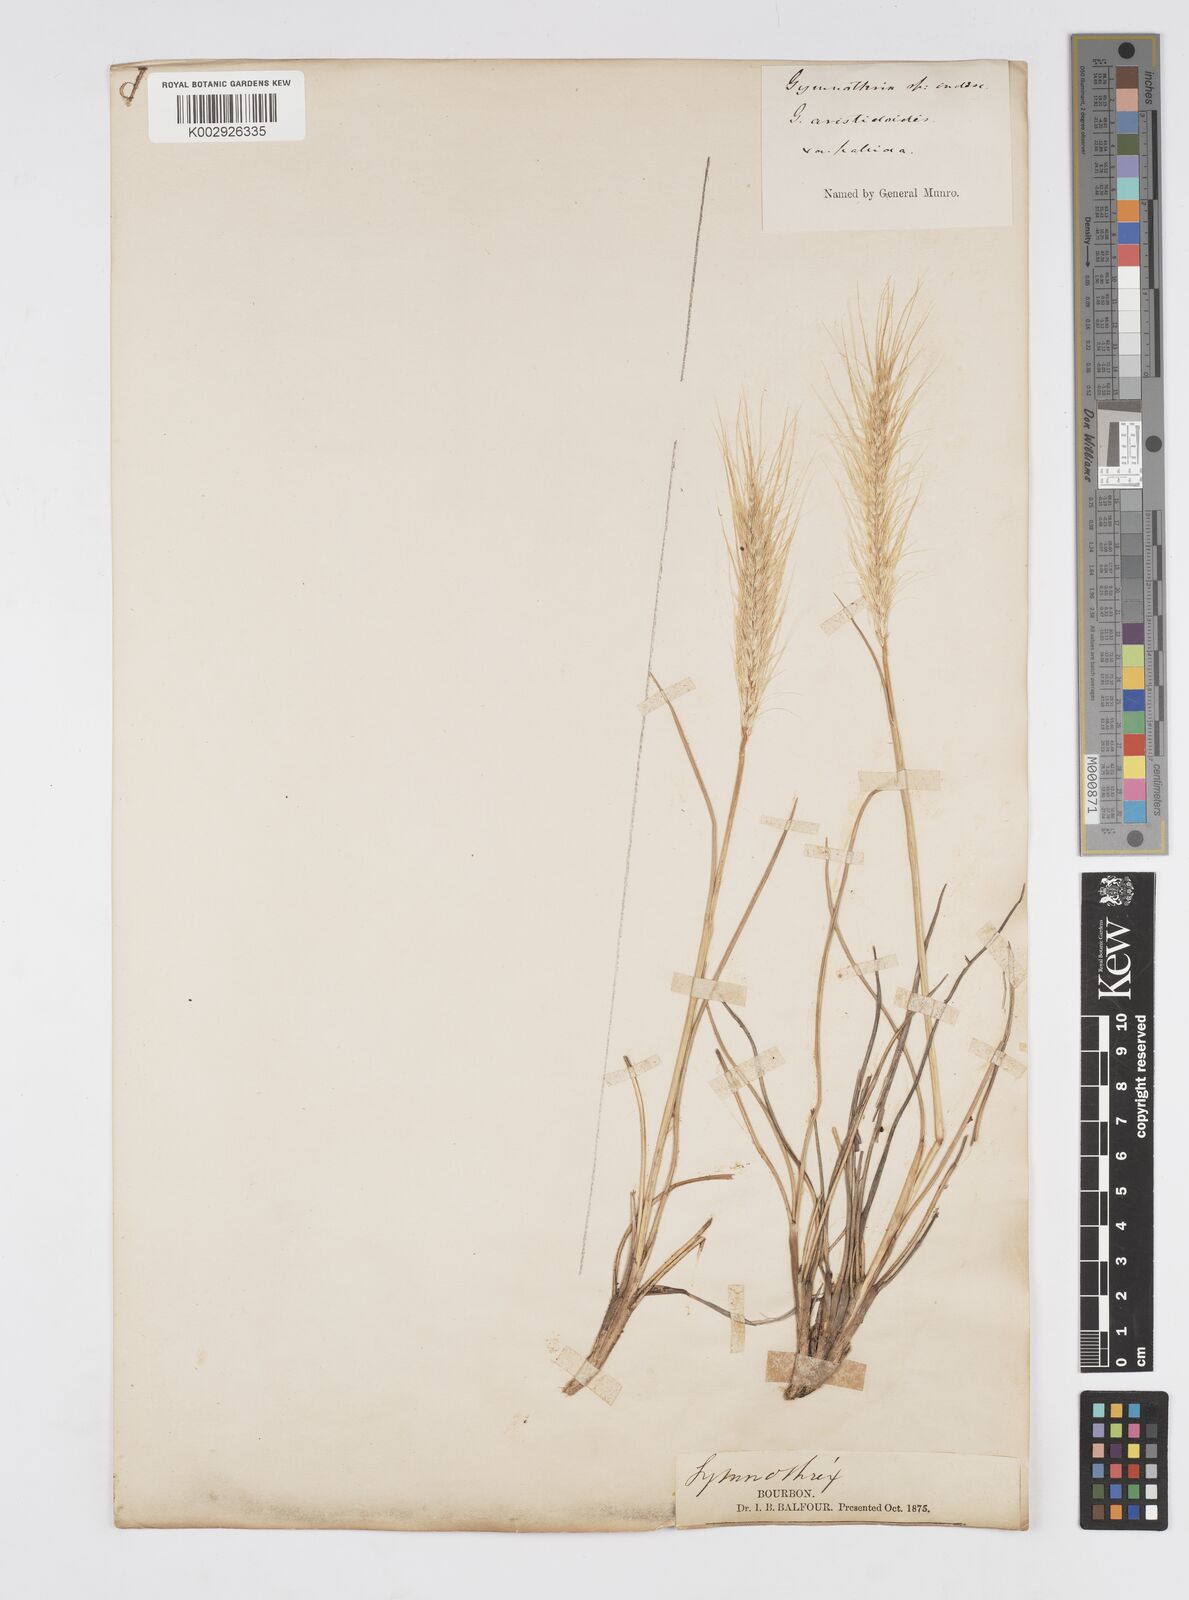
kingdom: Plantae
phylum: Tracheophyta
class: Liliopsida
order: Poales
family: Poaceae
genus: Cenchrus
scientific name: Cenchrus cafer
